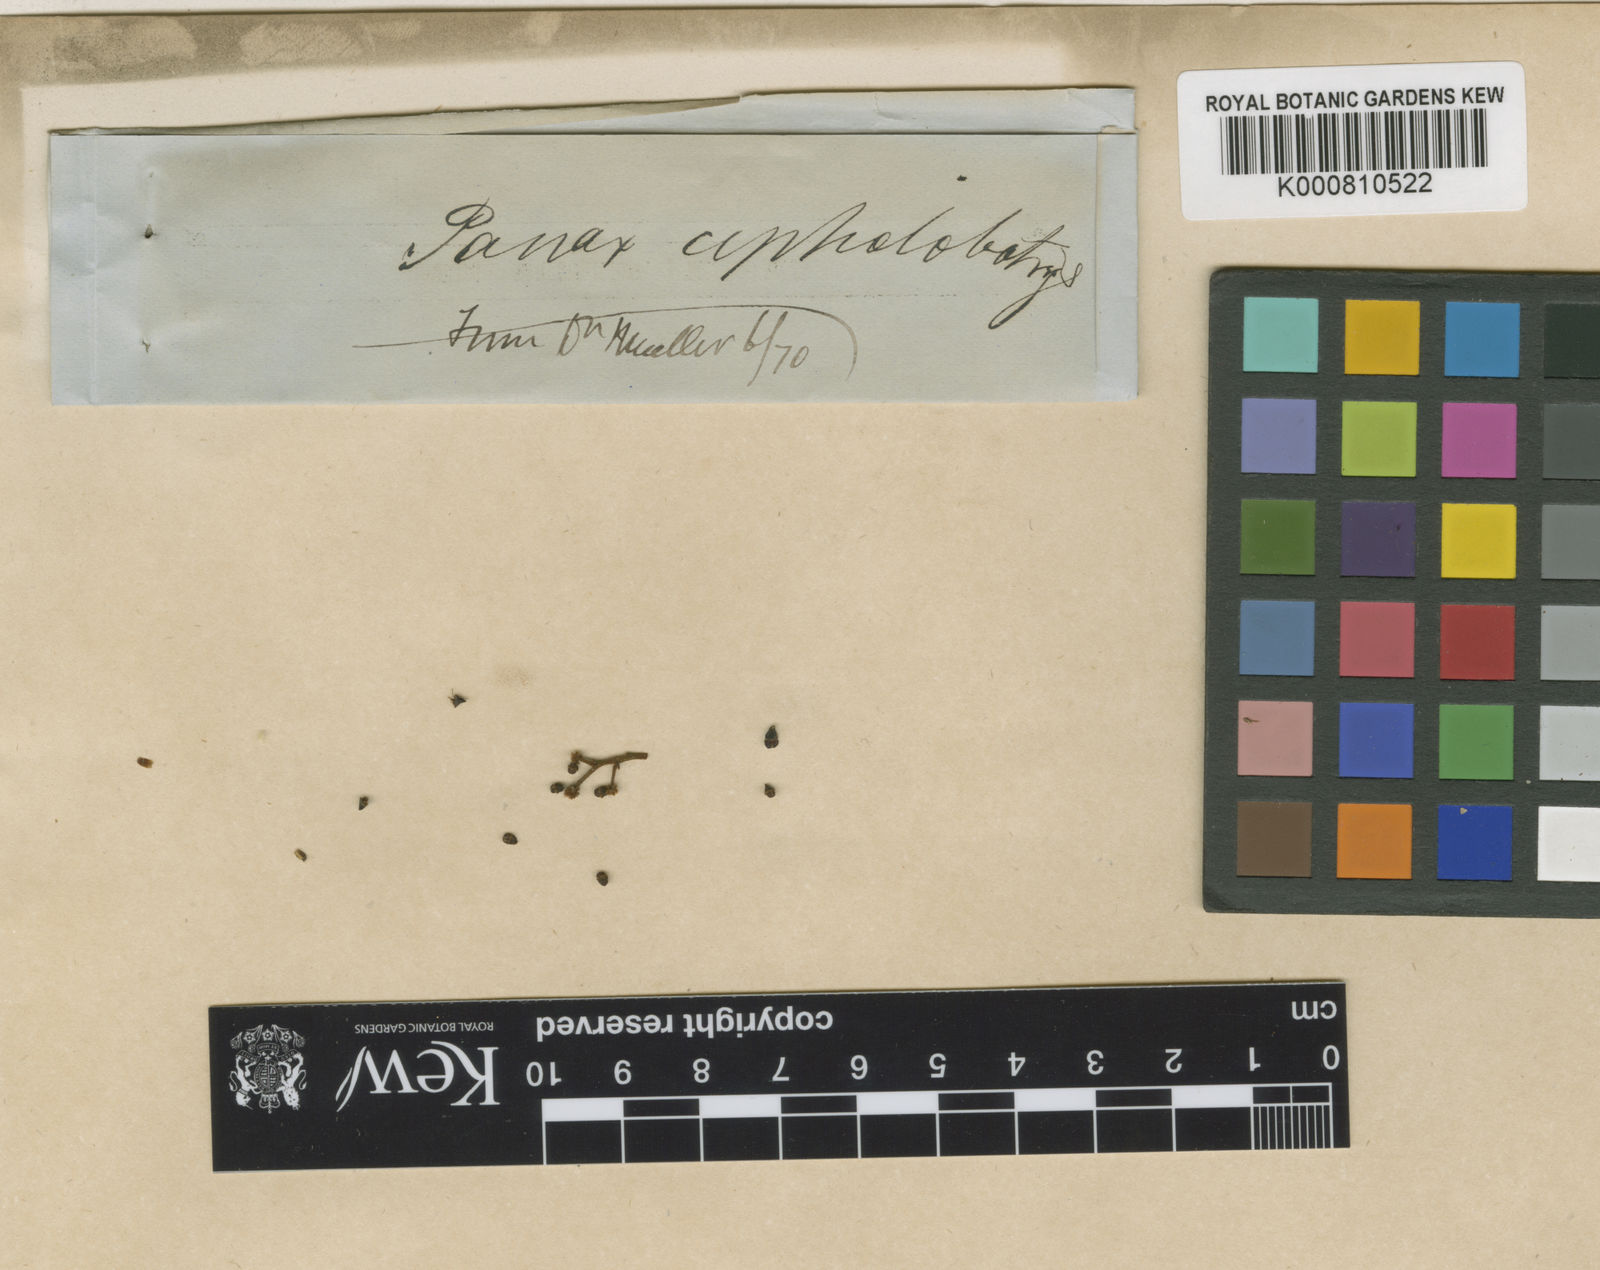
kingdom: Plantae
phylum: Tracheophyta
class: Magnoliopsida
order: Apiales
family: Araliaceae
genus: Cephalaralia
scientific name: Cephalaralia cephalobotrys
